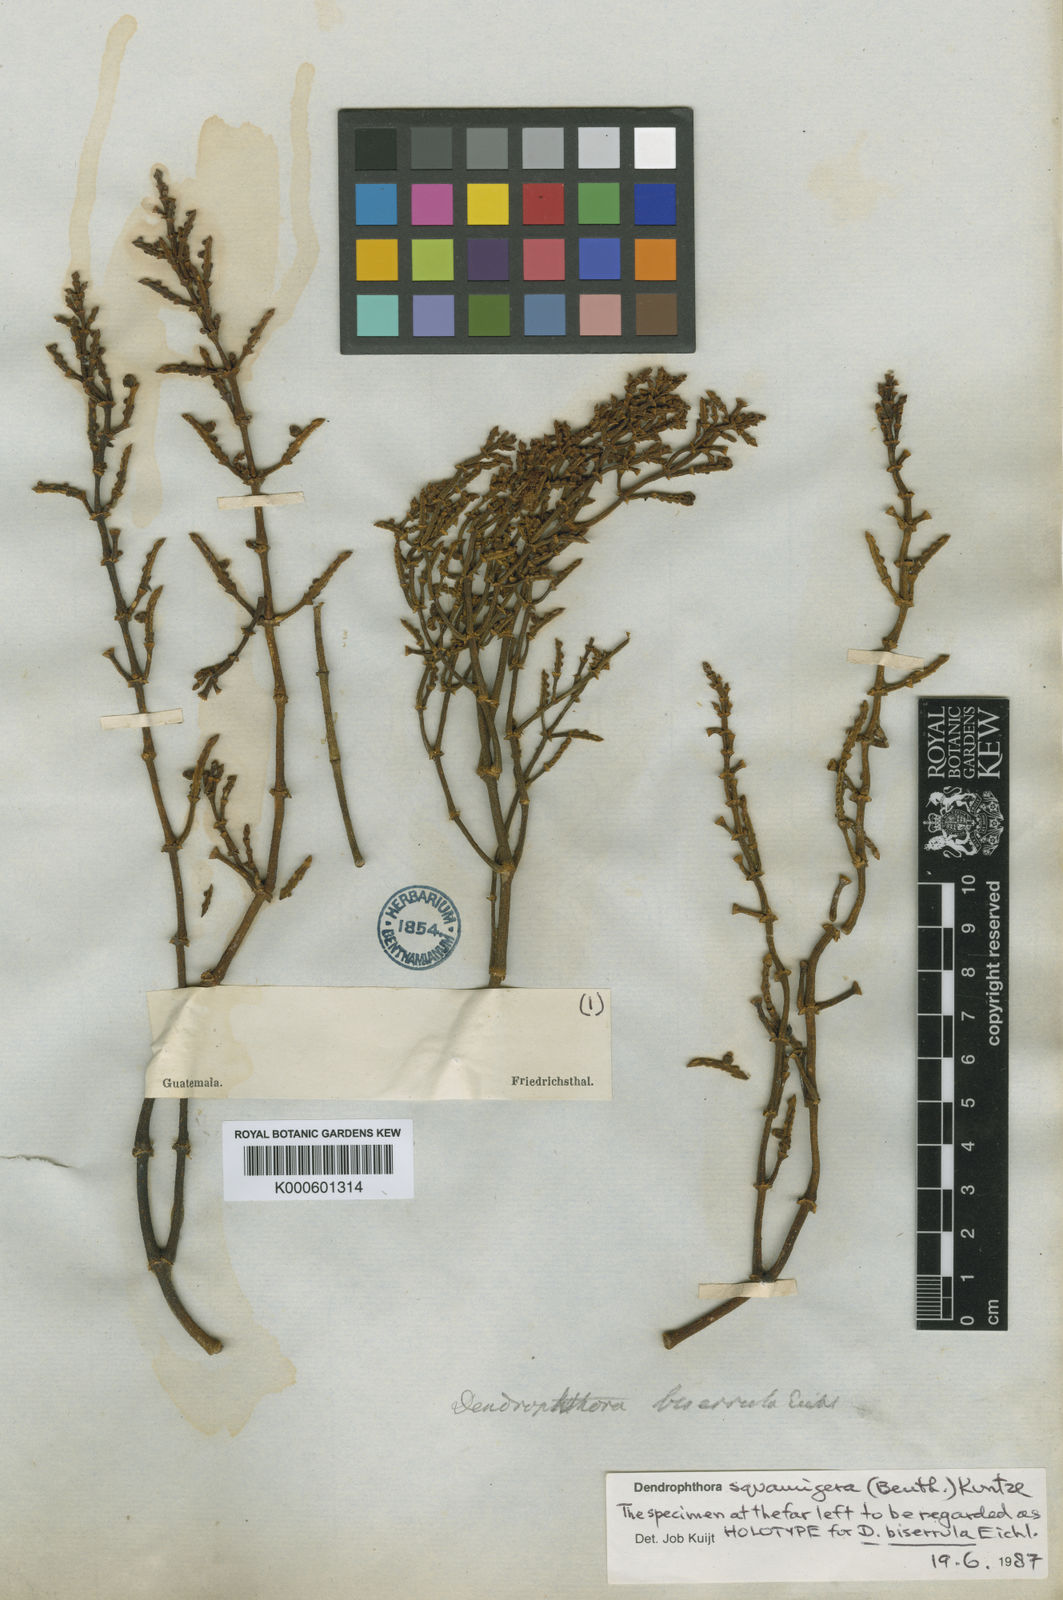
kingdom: Plantae
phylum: Tracheophyta
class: Magnoliopsida
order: Santalales
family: Viscaceae
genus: Dendrophthora
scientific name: Dendrophthora squamigera
